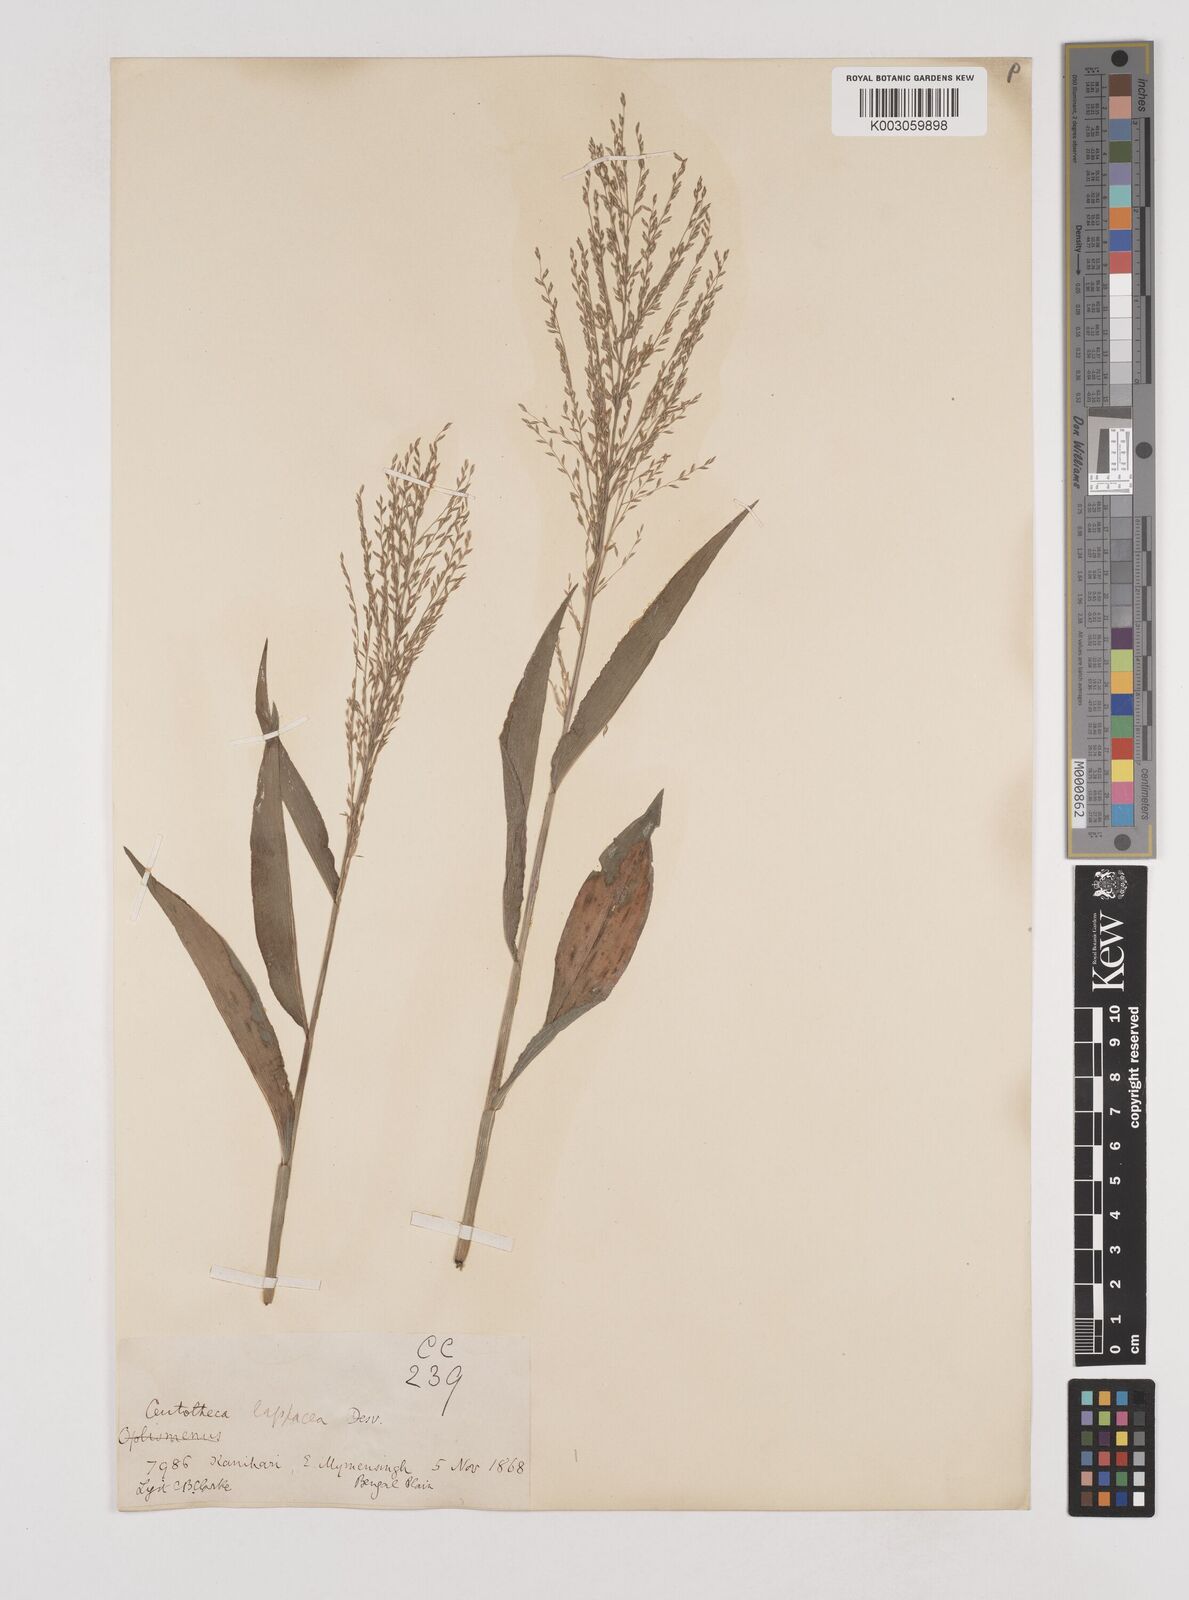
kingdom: Plantae
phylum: Tracheophyta
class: Liliopsida
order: Poales
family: Poaceae
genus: Centotheca
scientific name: Centotheca lappacea
